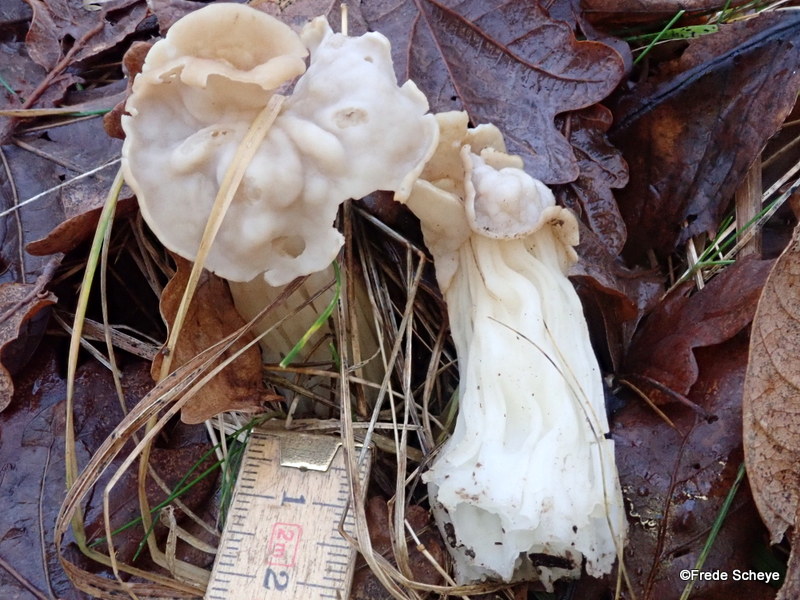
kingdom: Fungi
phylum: Ascomycota
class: Pezizomycetes
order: Pezizales
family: Helvellaceae
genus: Helvella
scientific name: Helvella crispa
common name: kruset foldhat
